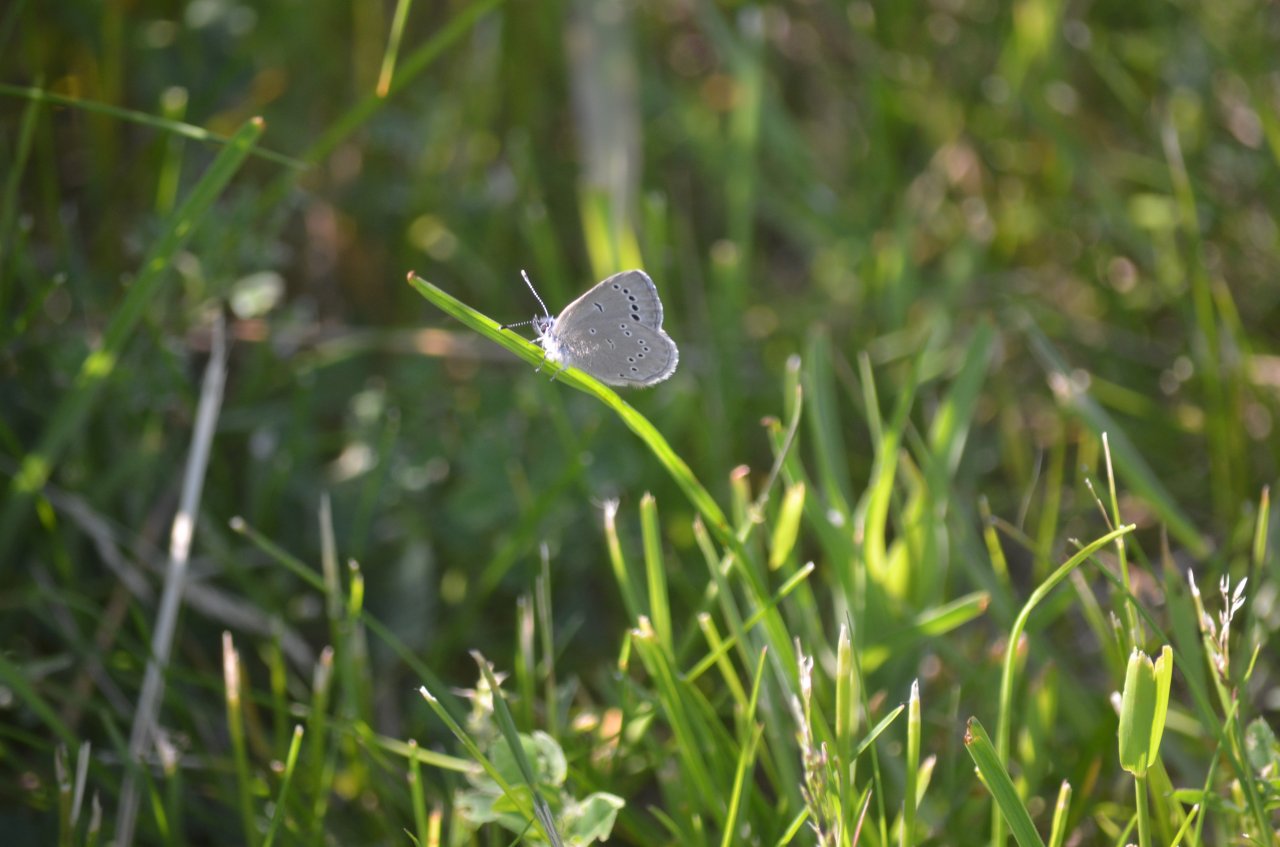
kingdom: Animalia
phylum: Arthropoda
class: Insecta
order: Lepidoptera
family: Lycaenidae
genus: Glaucopsyche
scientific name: Glaucopsyche lygdamus
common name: Silvery Blue
